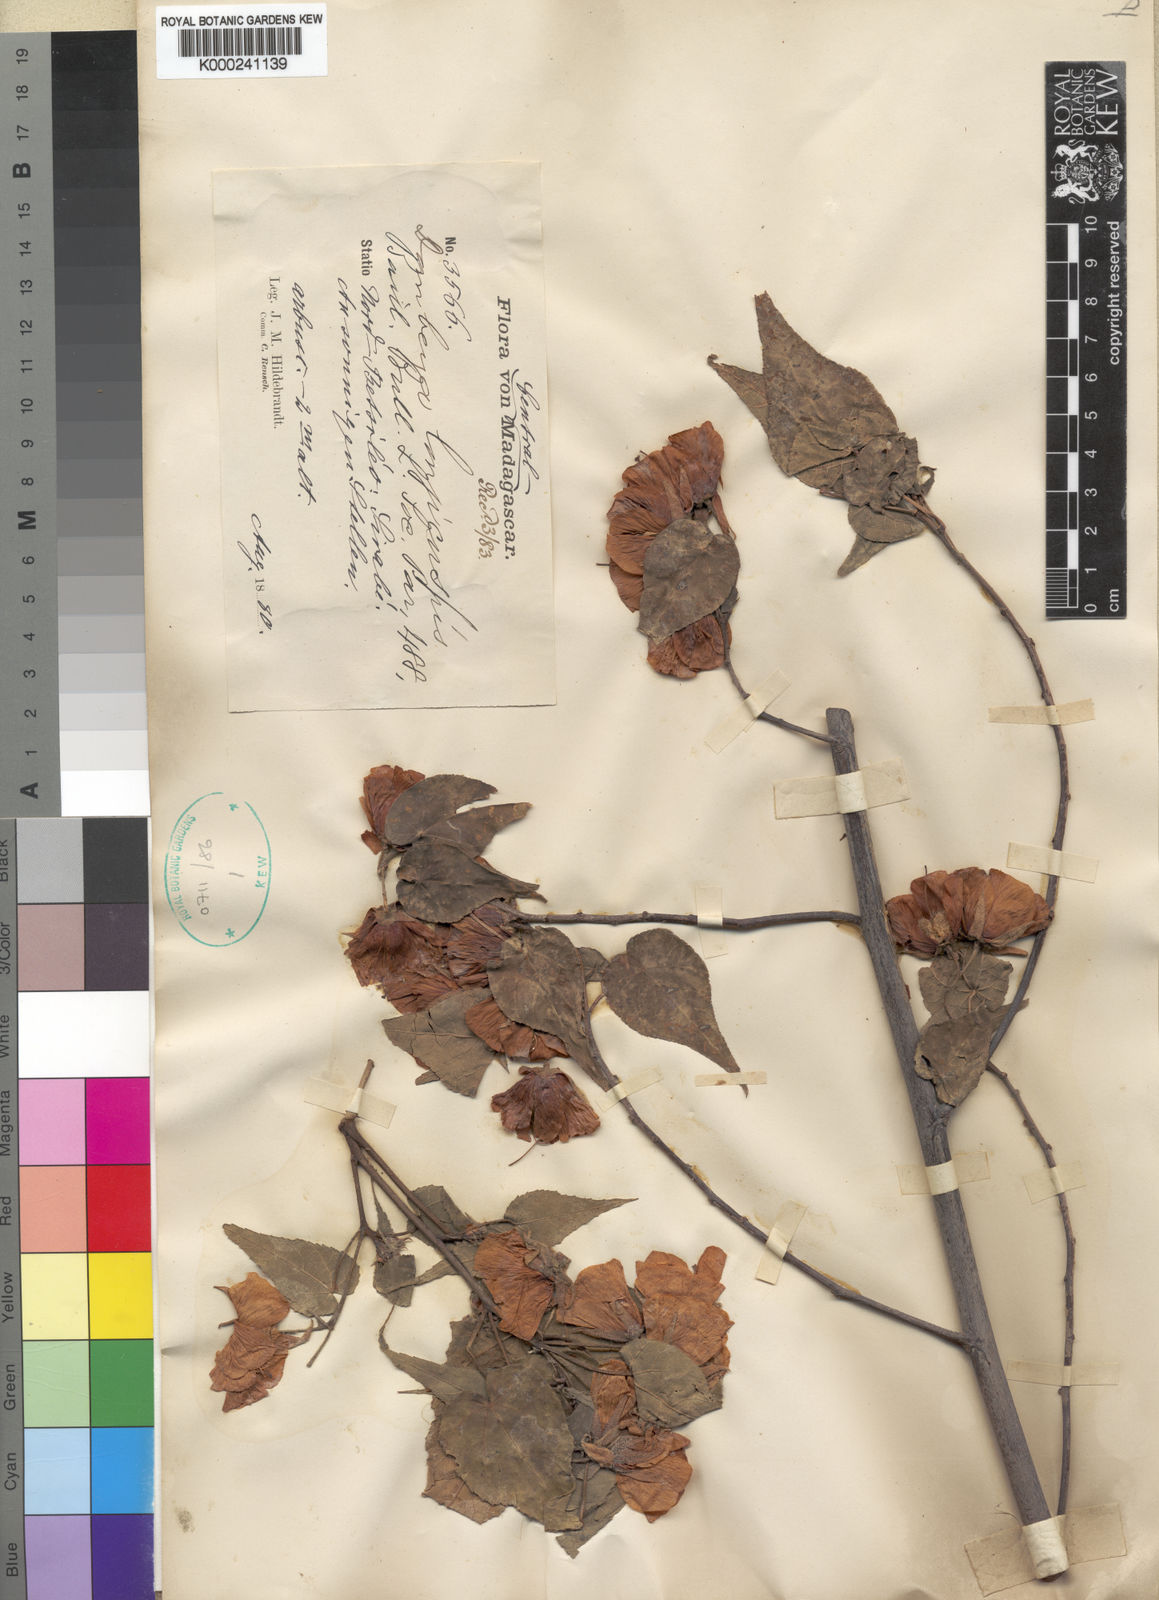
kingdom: Plantae
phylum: Tracheophyta
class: Magnoliopsida
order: Malvales
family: Malvaceae
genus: Dombeya
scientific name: Dombeya longicuspis
